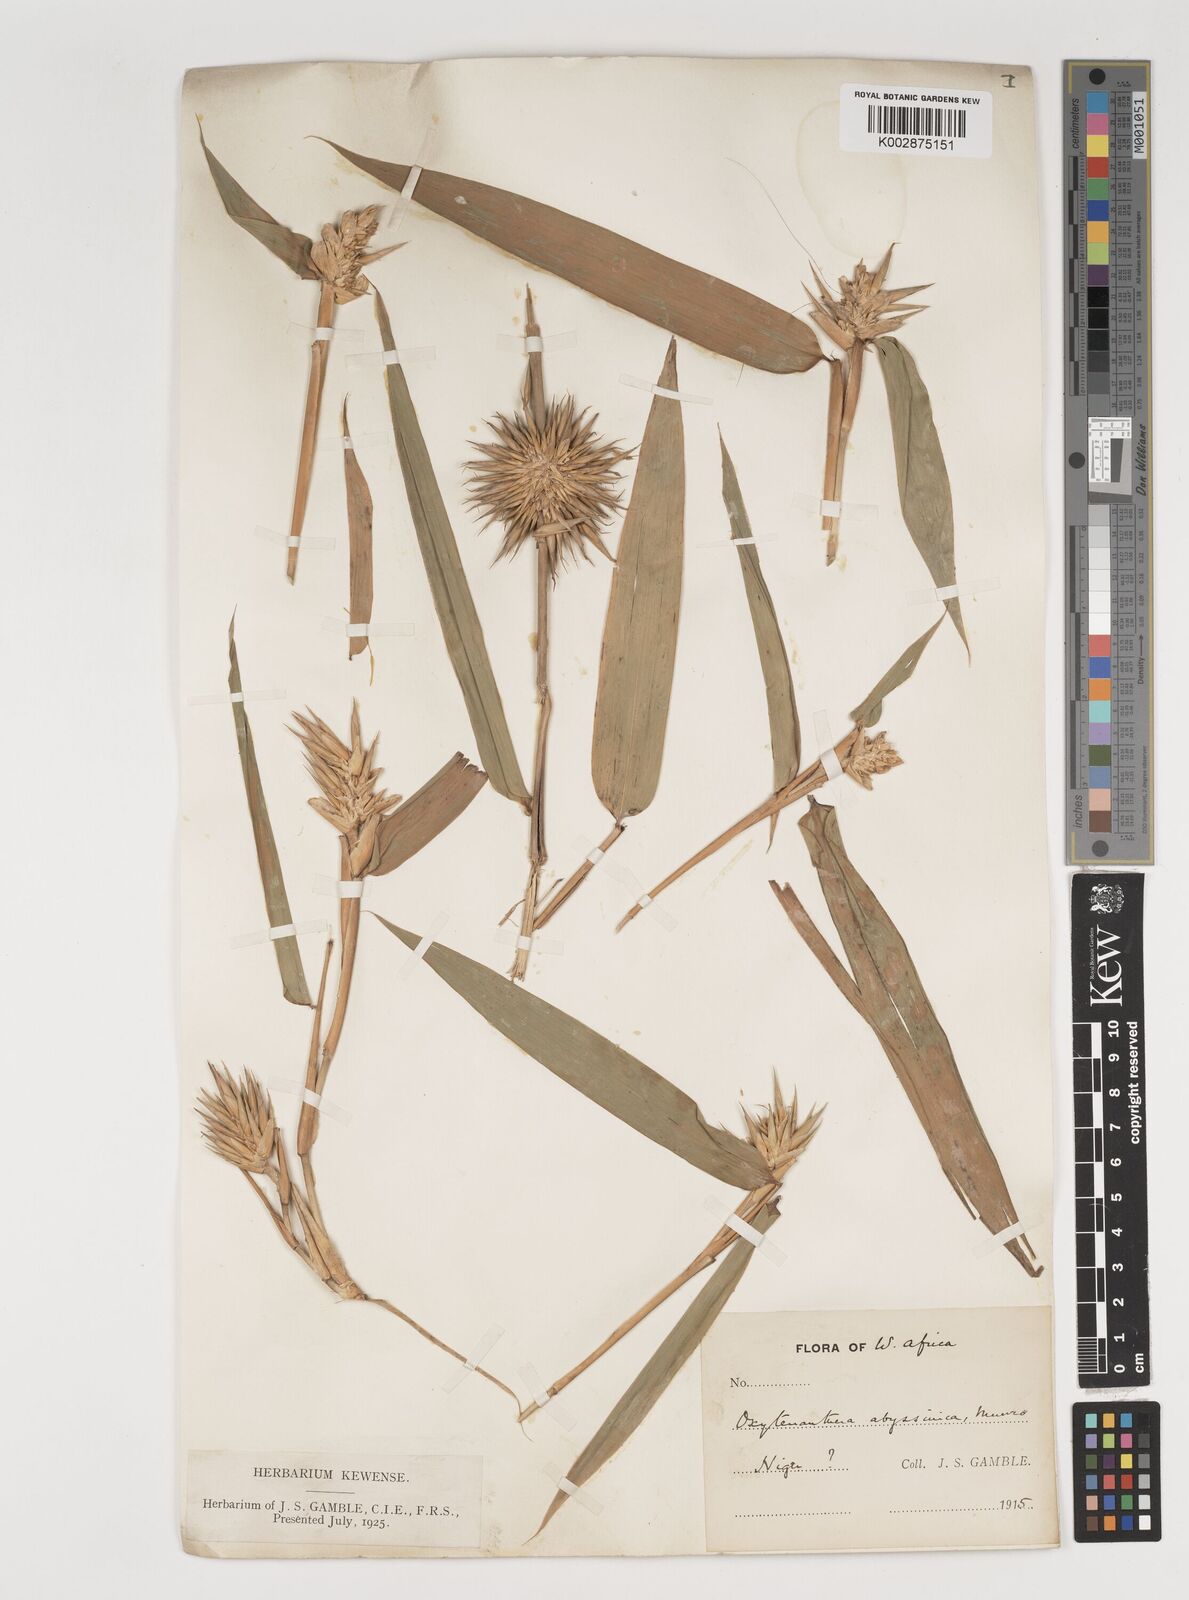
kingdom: Plantae
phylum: Tracheophyta
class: Liliopsida
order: Poales
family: Poaceae
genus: Oxytenanthera
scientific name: Oxytenanthera abyssinica
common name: Wine bamboo
